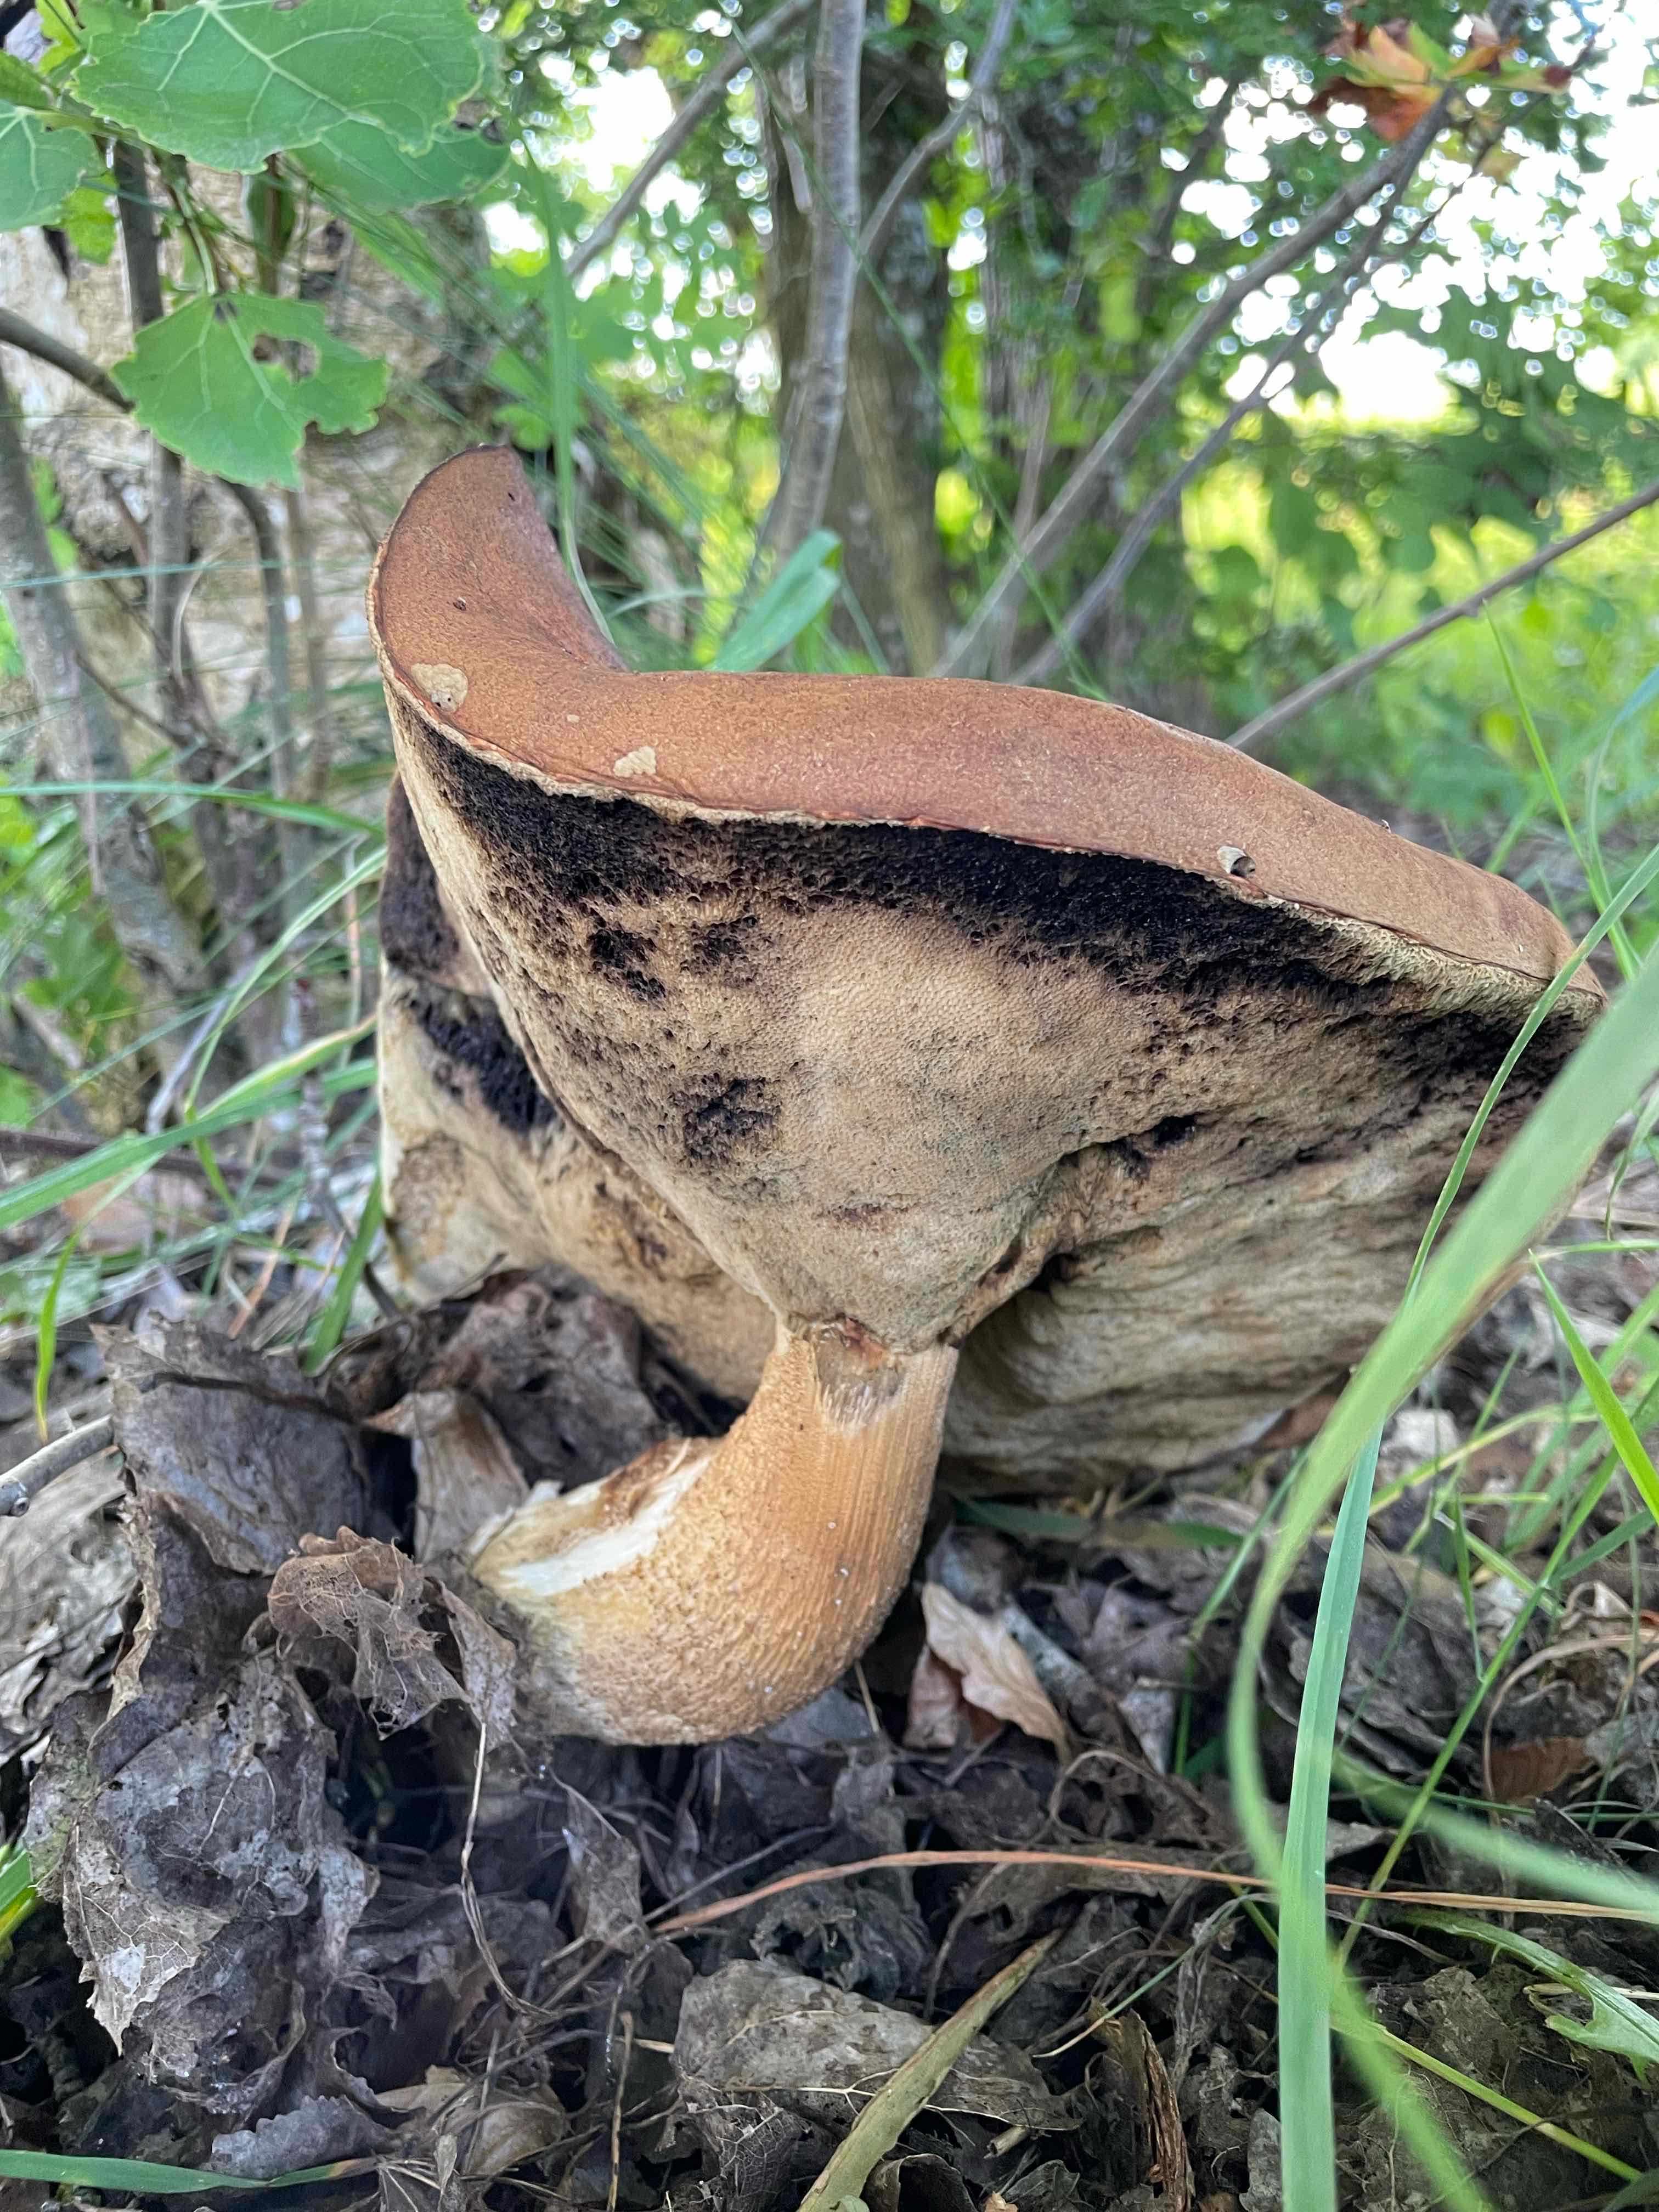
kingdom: Fungi
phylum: Basidiomycota
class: Agaricomycetes
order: Boletales
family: Boletaceae
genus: Leccinum
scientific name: Leccinum
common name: skælrørhat
